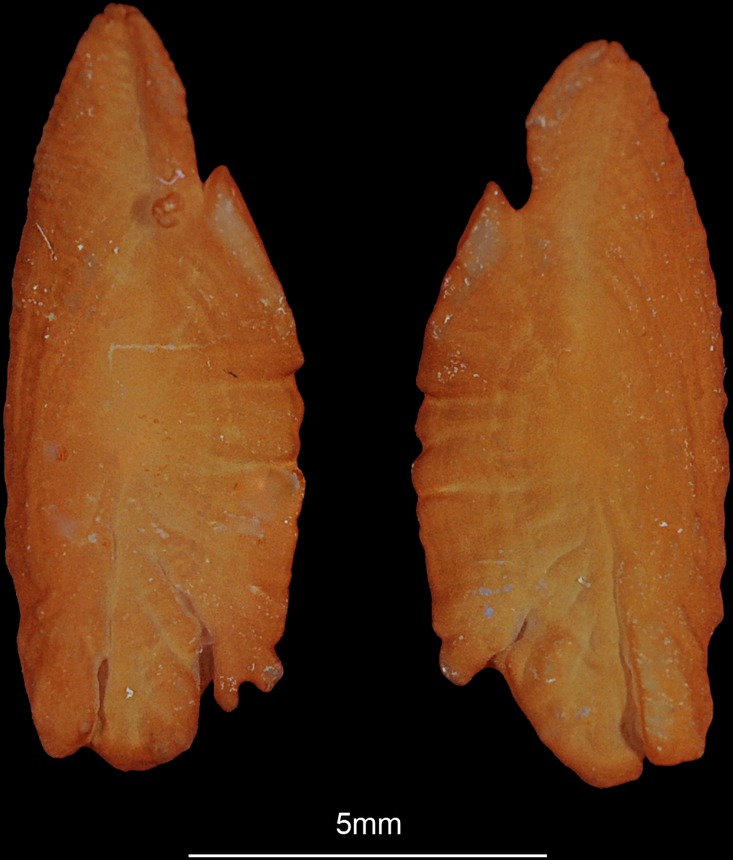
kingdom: Animalia
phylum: Chordata
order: Perciformes
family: Serranidae
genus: Epinephelus
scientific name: Epinephelus tauvina
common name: Greasy grouper
